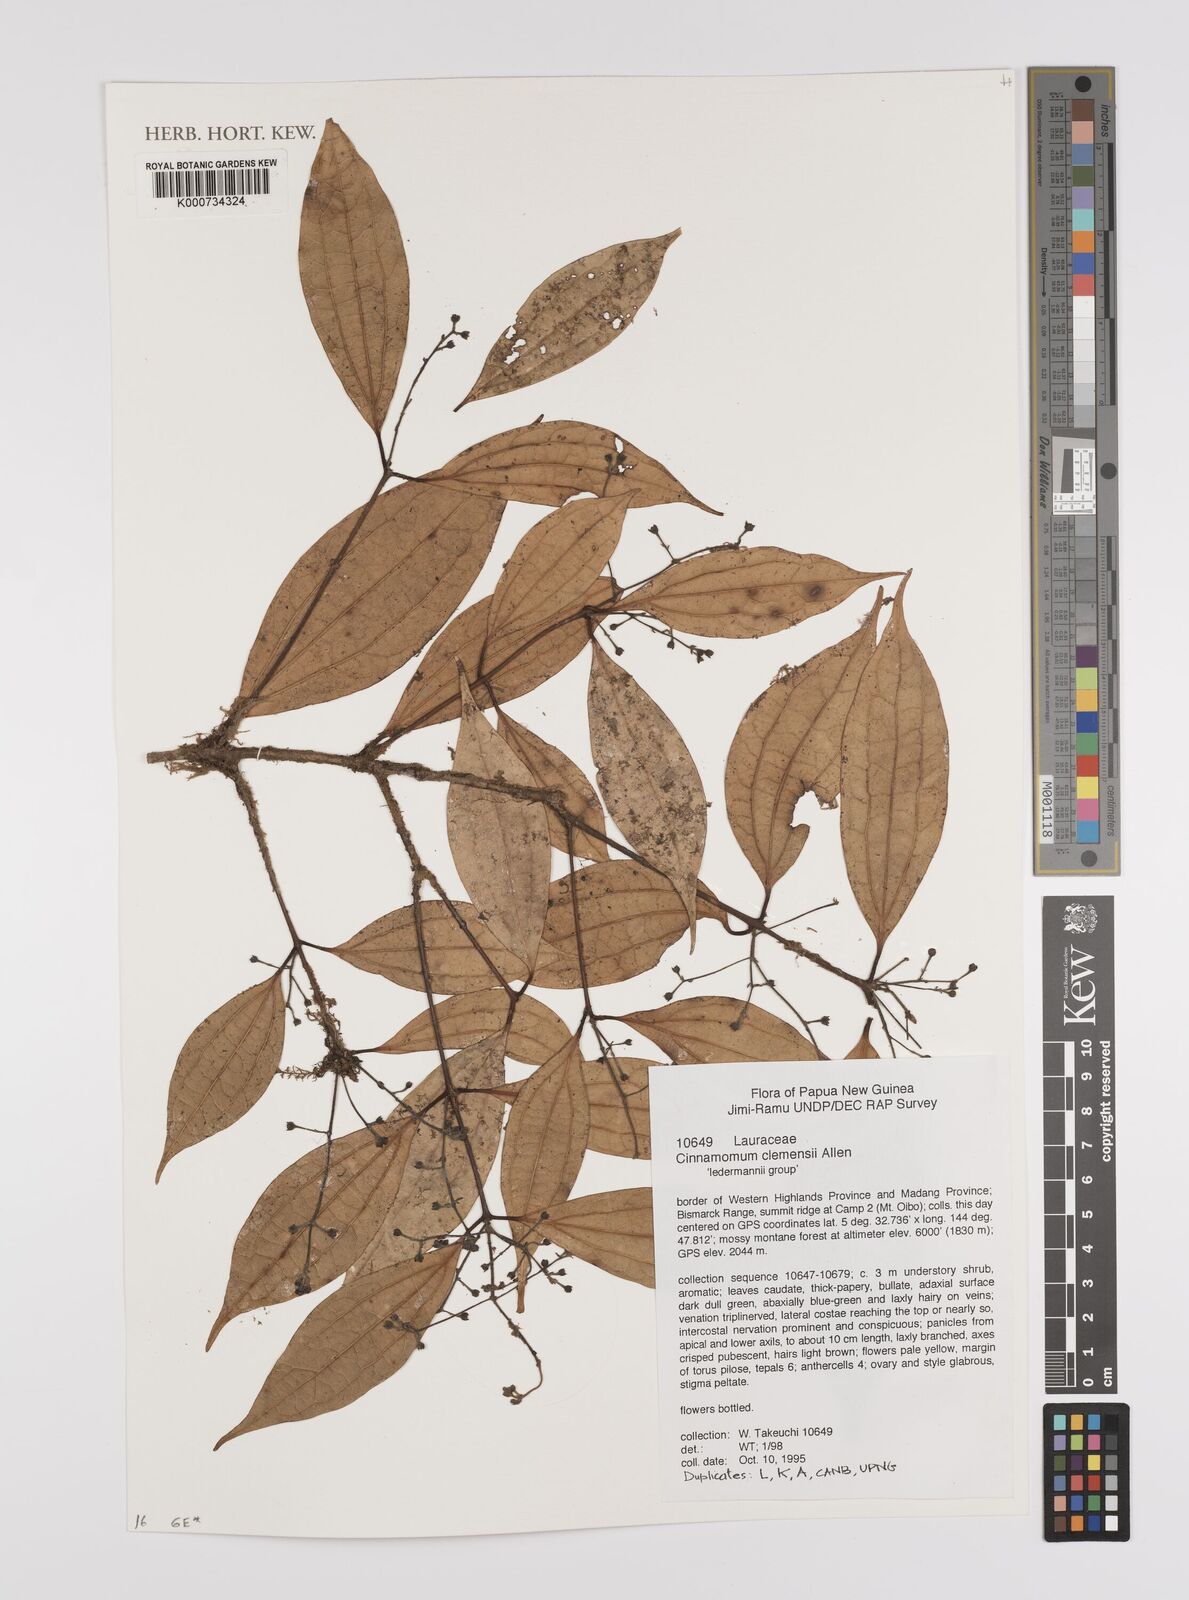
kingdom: Plantae
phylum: Tracheophyta
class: Magnoliopsida
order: Laurales
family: Lauraceae
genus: Cinnamomum
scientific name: Cinnamomum clemensii
